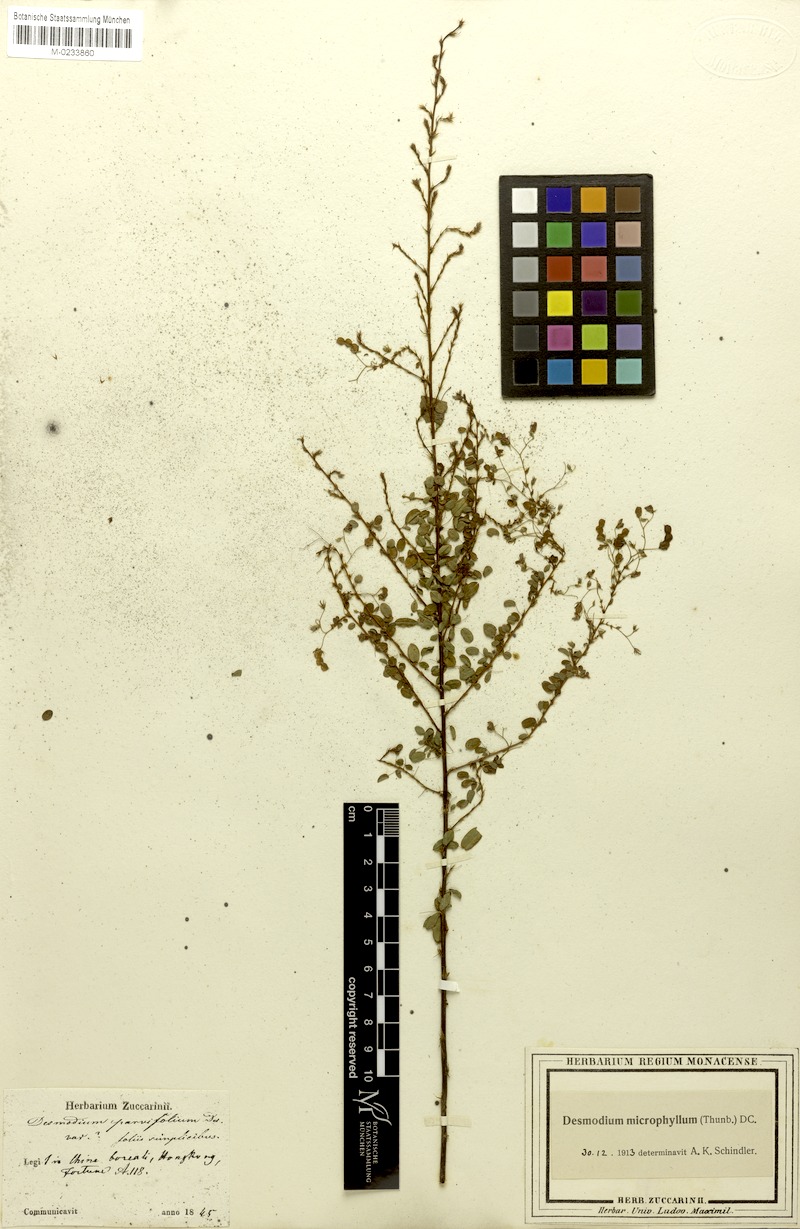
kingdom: Plantae
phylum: Tracheophyta
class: Magnoliopsida
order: Fabales
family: Fabaceae
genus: Leptodesmia
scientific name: Leptodesmia microphylla
